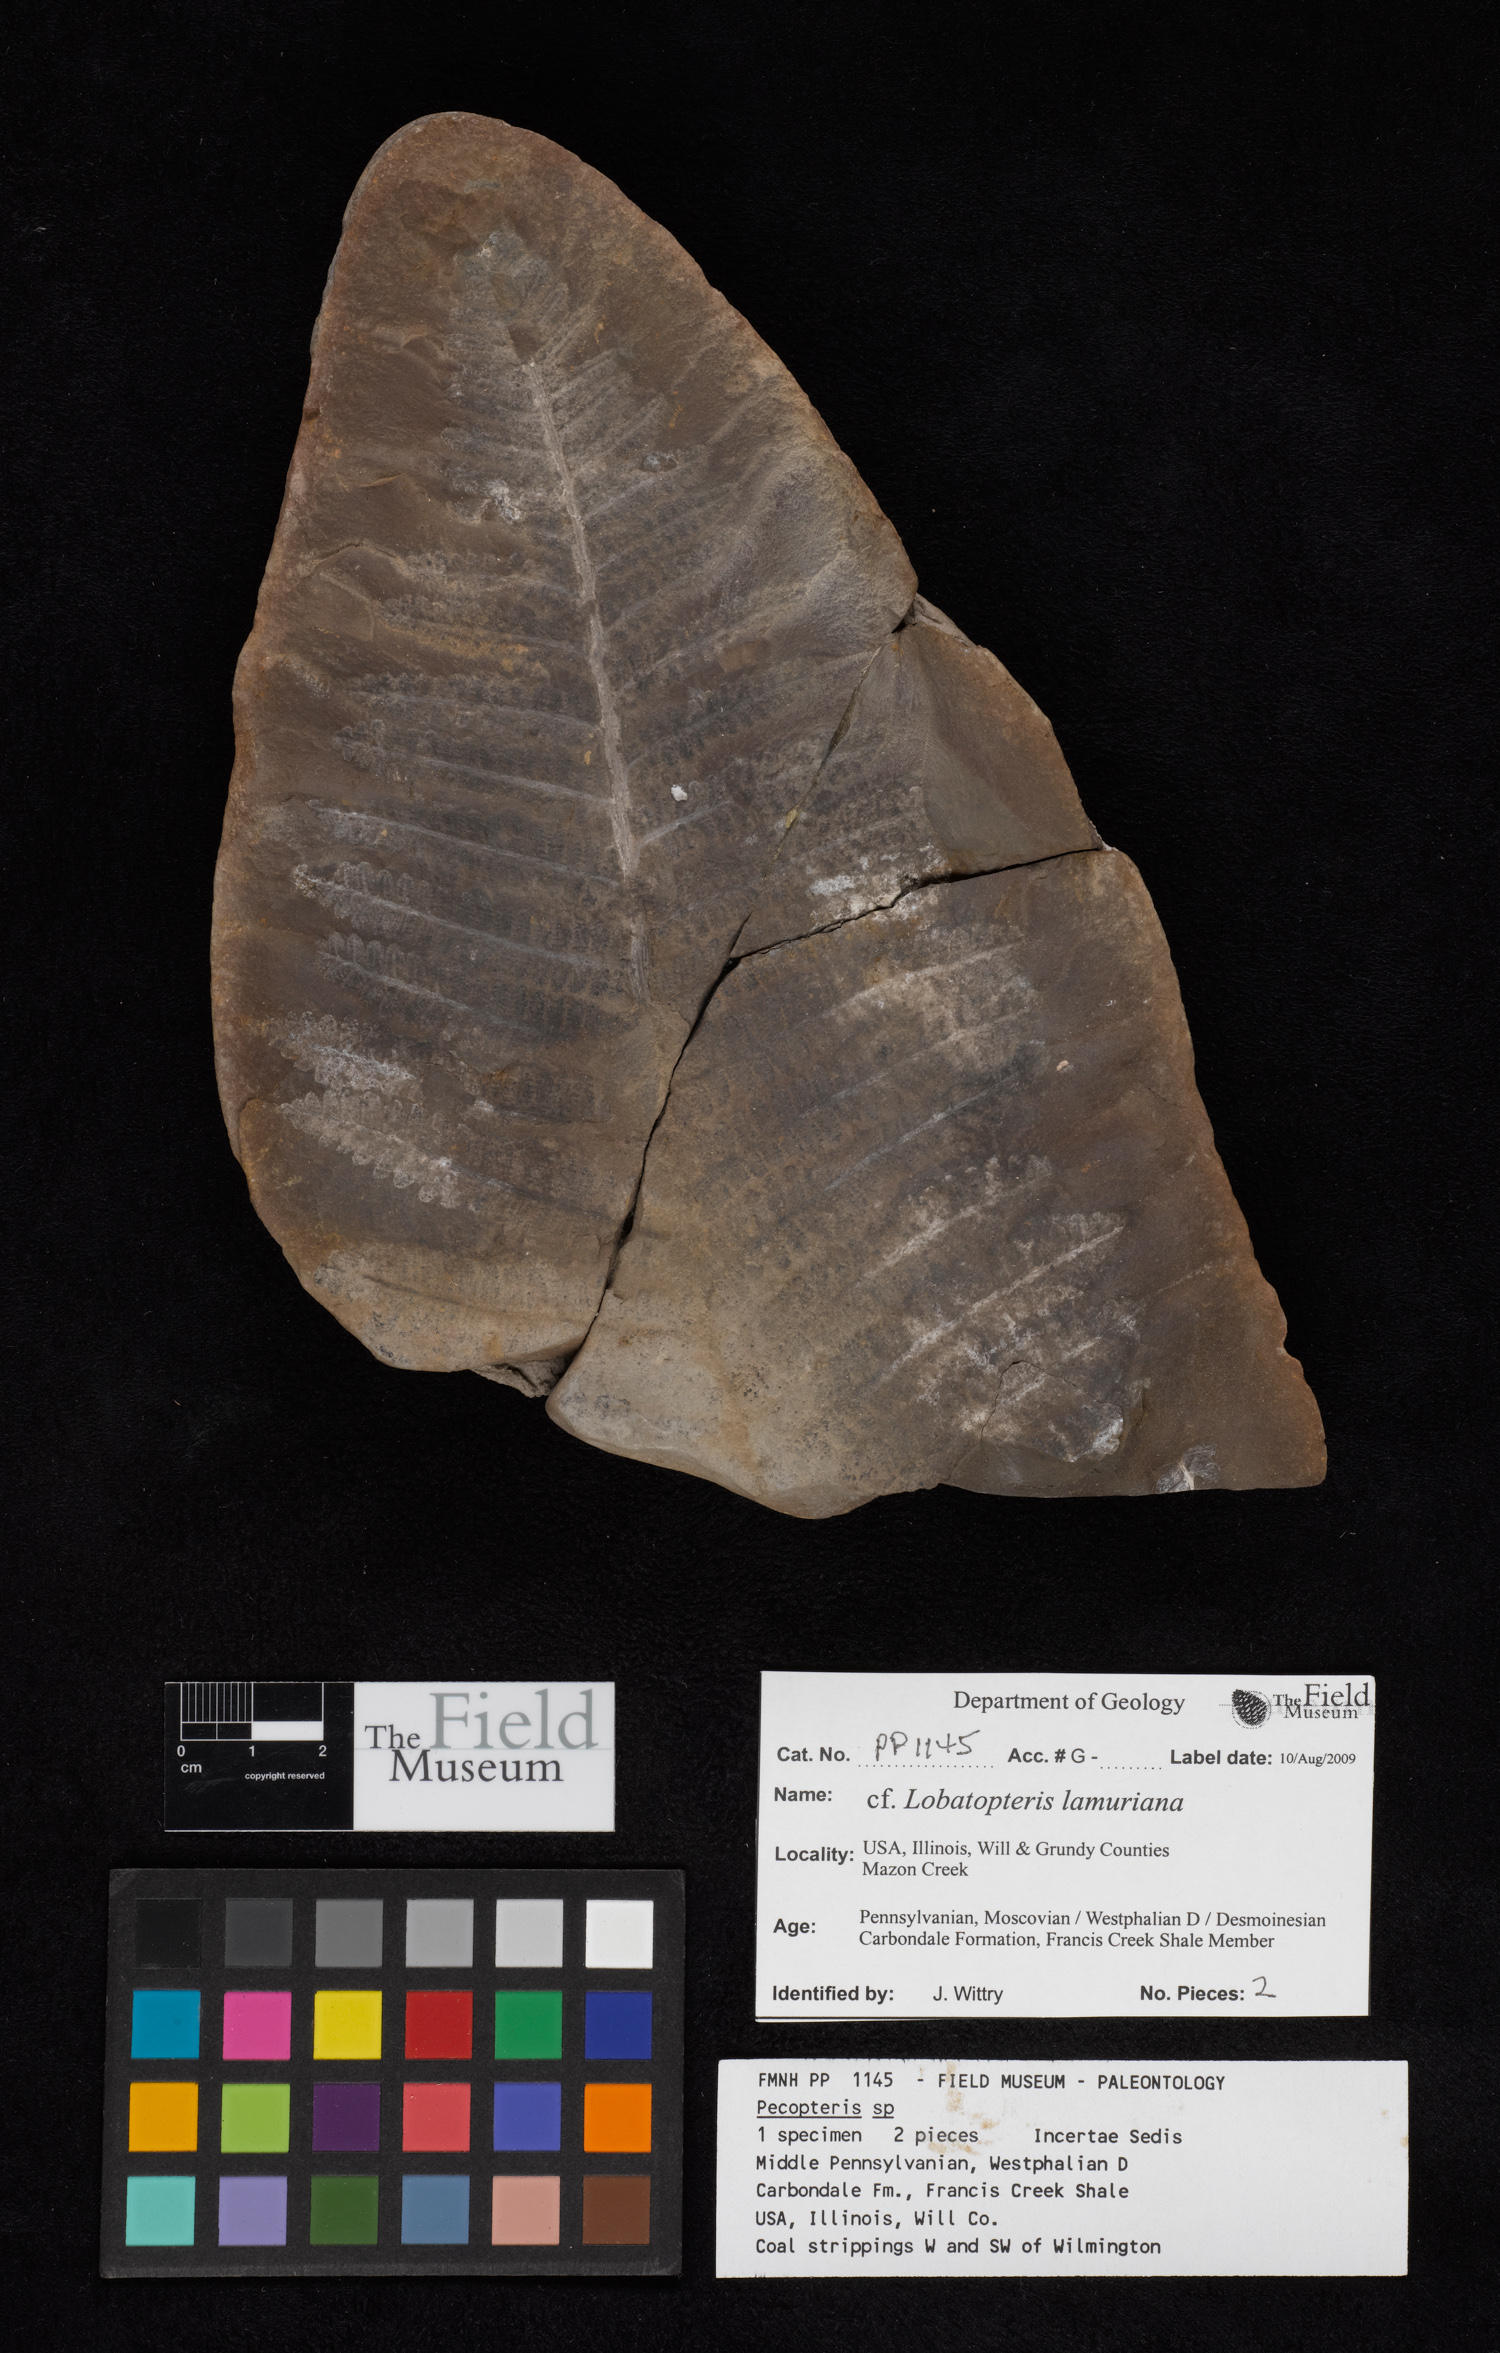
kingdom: Plantae
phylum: Tracheophyta
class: Polypodiopsida
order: Marattiales
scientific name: Marattiales
